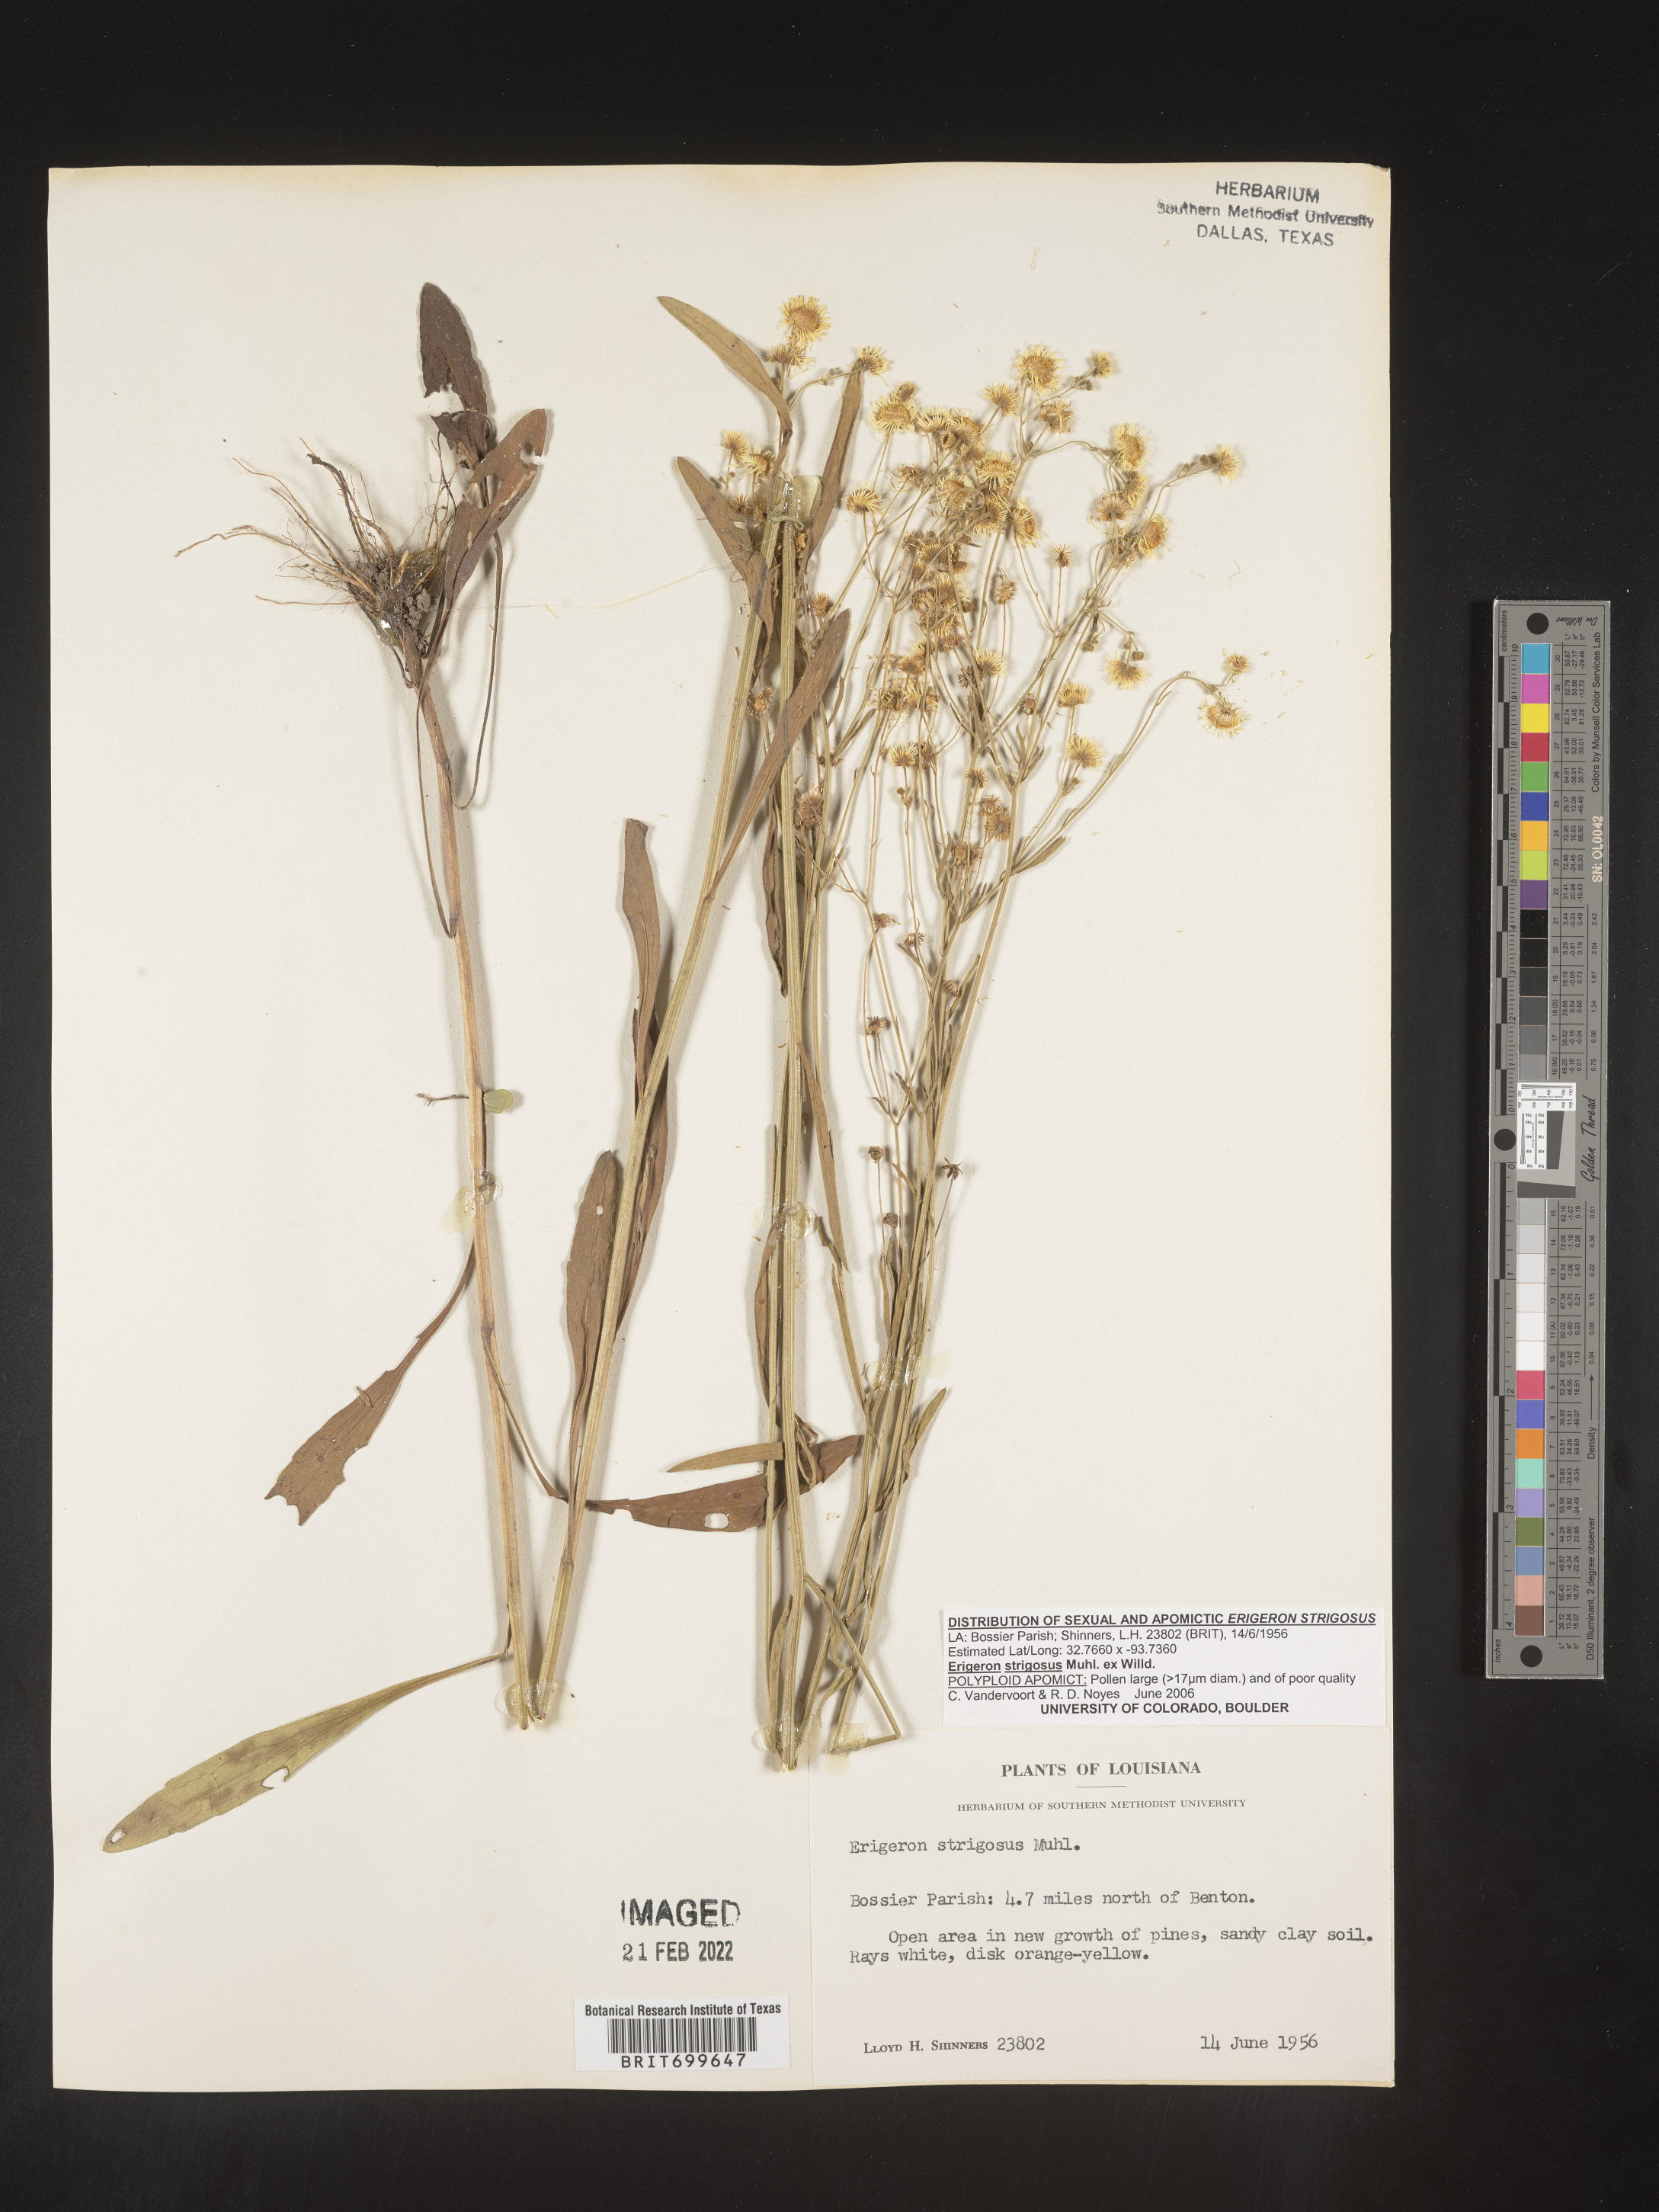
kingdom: Plantae
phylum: Tracheophyta
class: Magnoliopsida
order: Asterales
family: Asteraceae
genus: Erigeron
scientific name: Erigeron strigosus
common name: Common eastern fleabane
